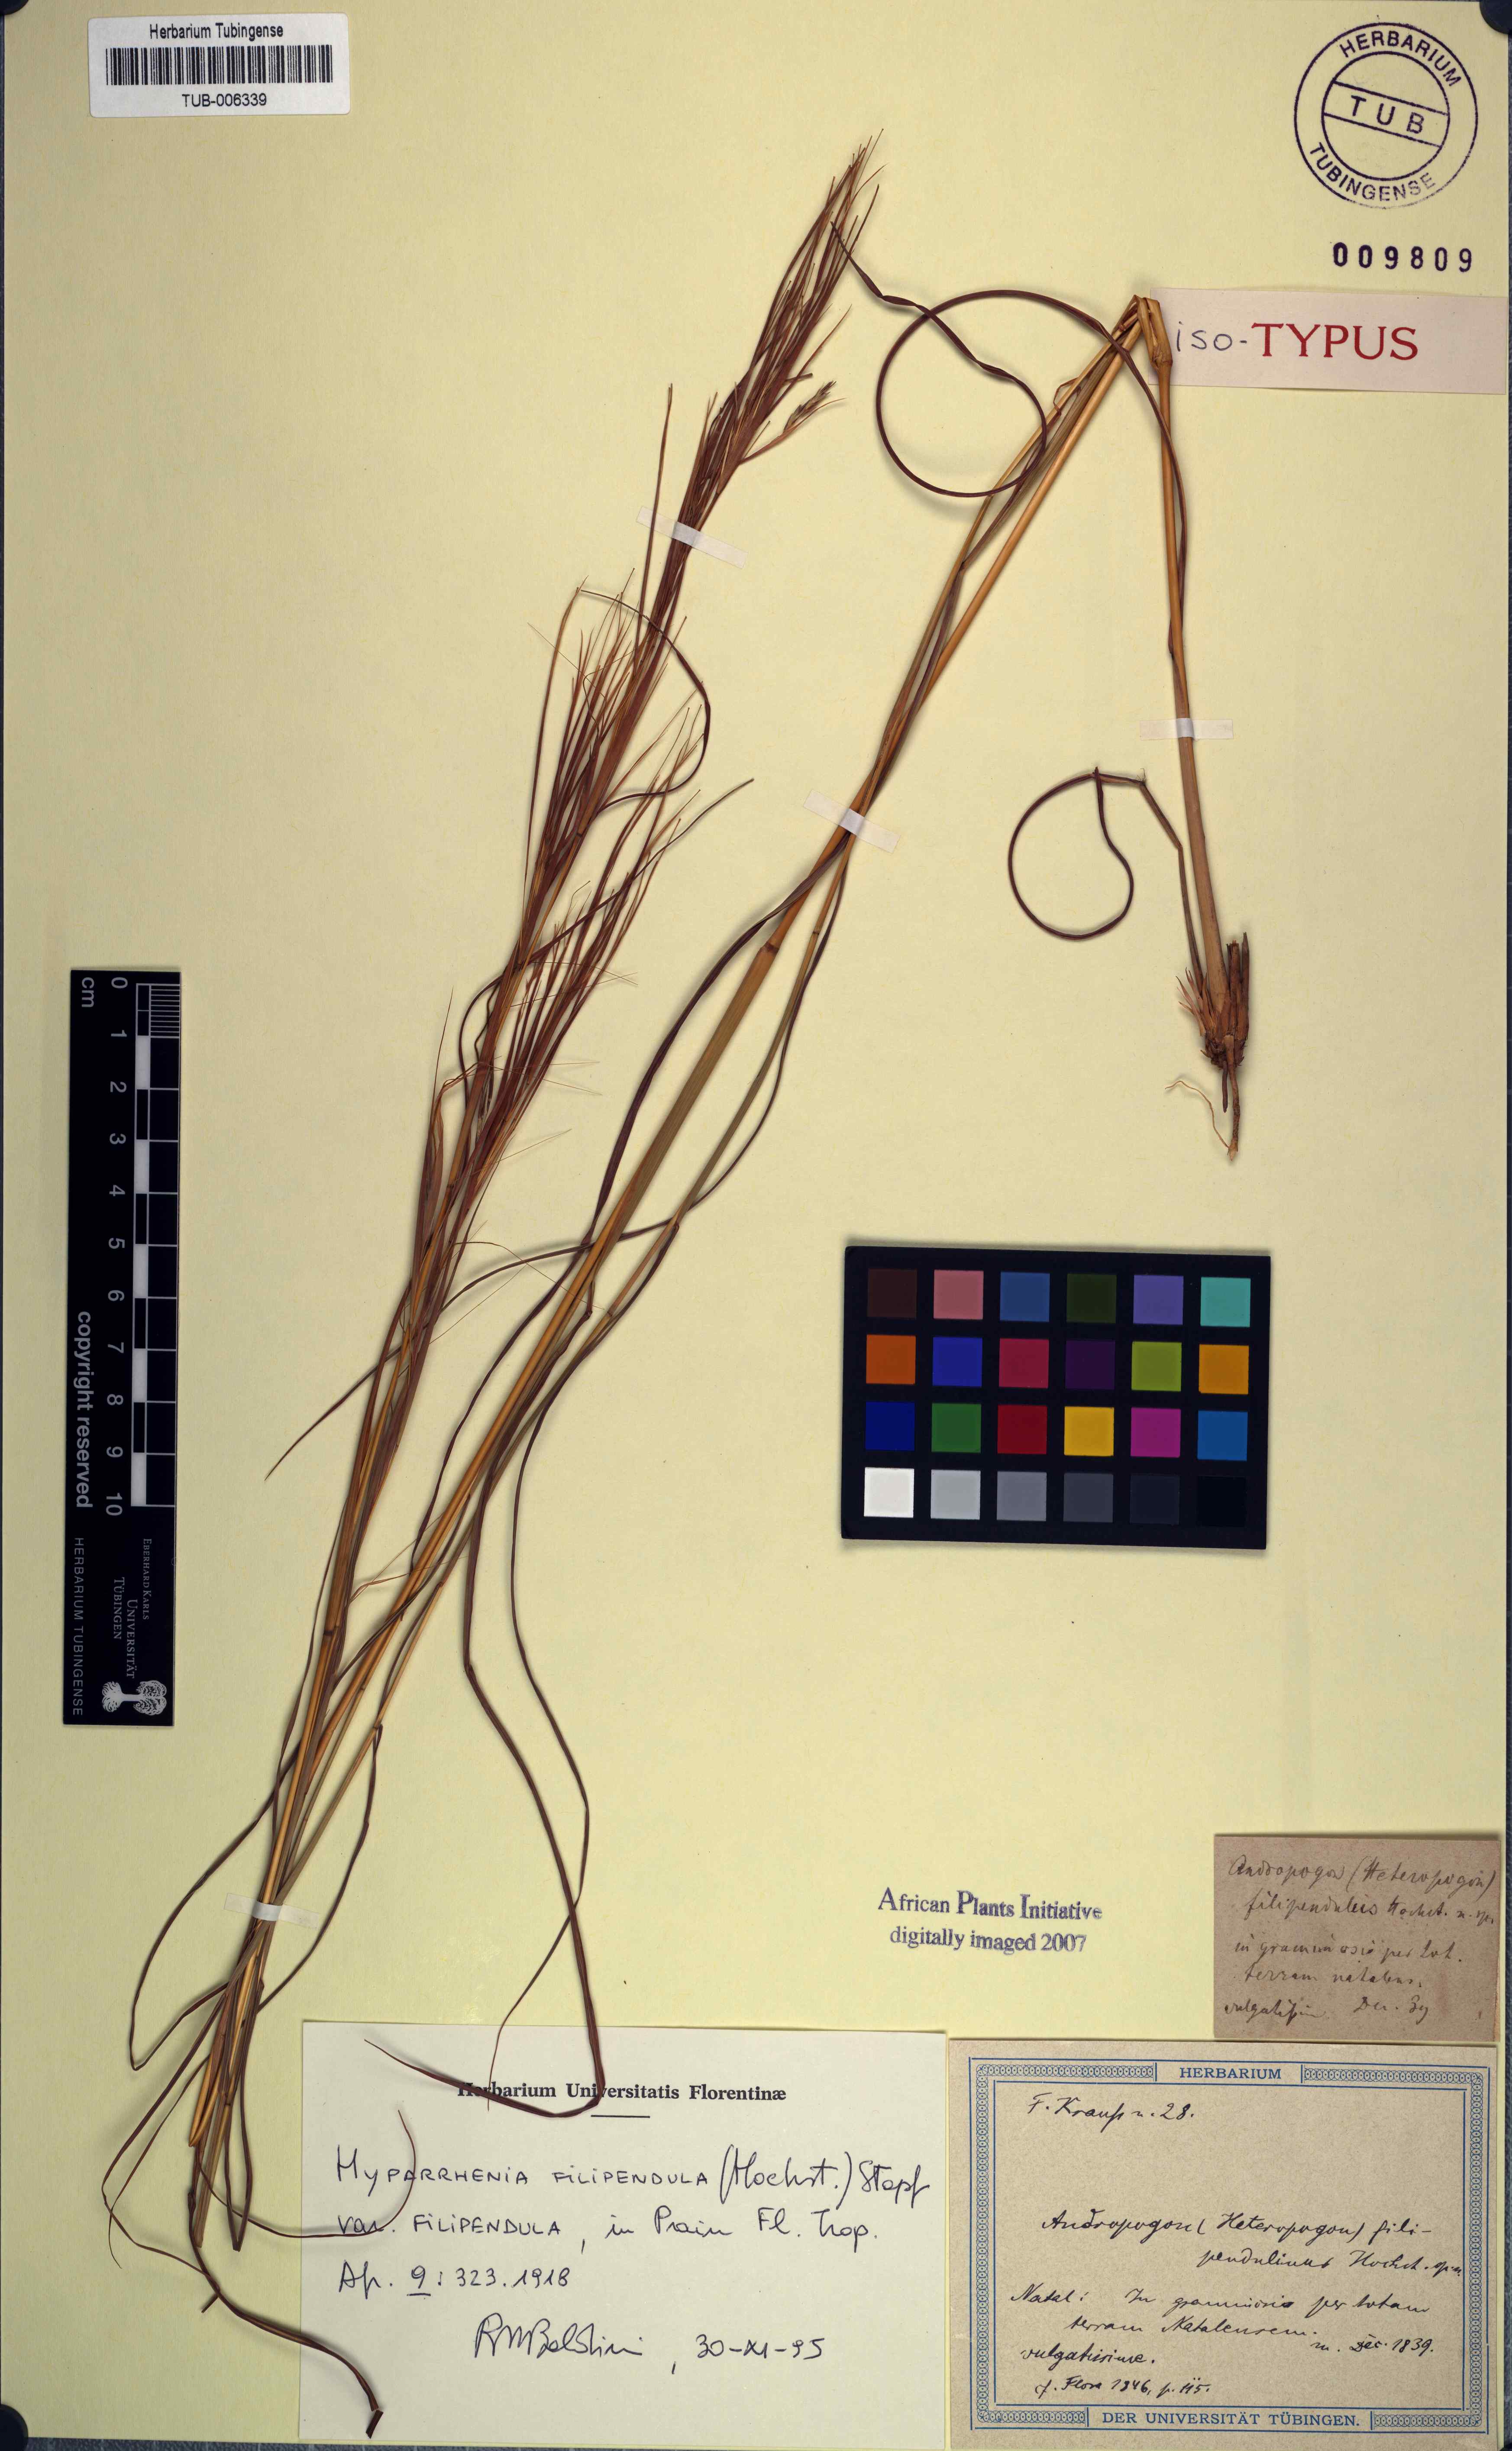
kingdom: Plantae
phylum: Tracheophyta
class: Liliopsida
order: Poales
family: Poaceae
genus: Hyparrhenia
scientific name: Hyparrhenia filipendula
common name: Tambookie grass
